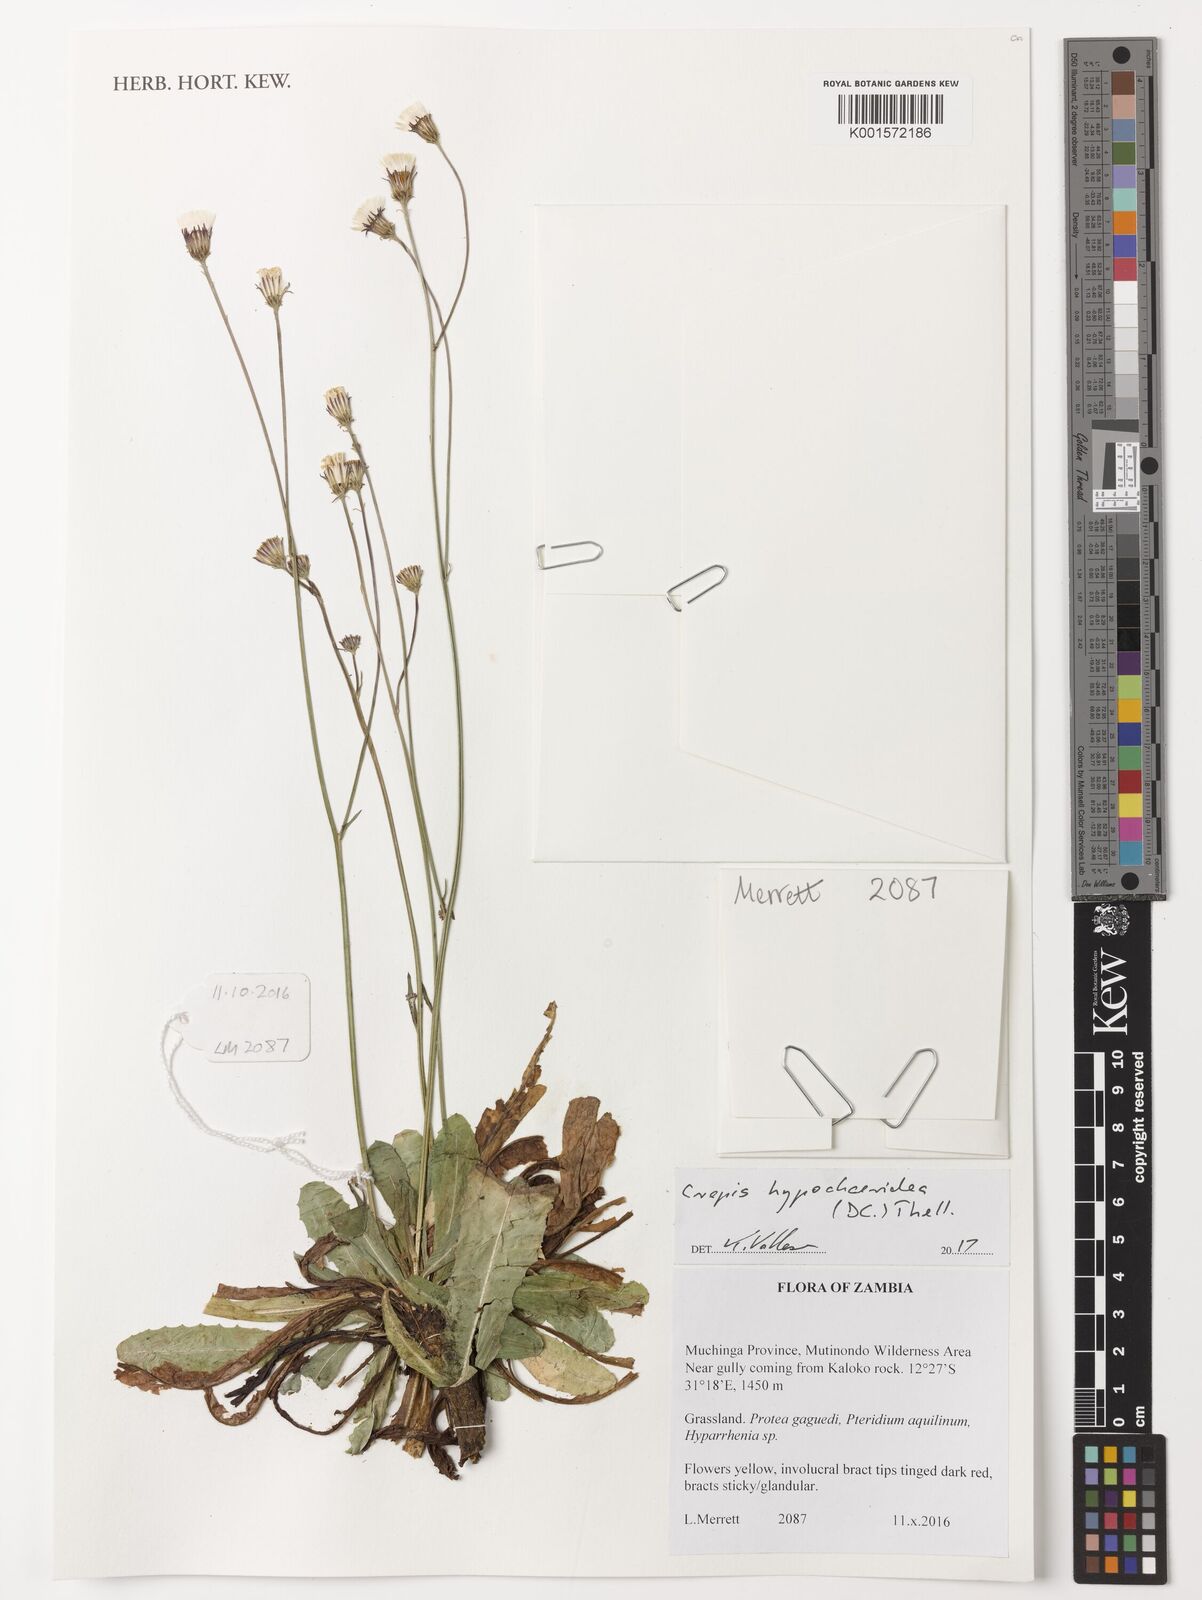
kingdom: Plantae
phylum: Tracheophyta
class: Magnoliopsida
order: Asterales
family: Asteraceae
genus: Crepis
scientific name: Crepis hypochoeridea
